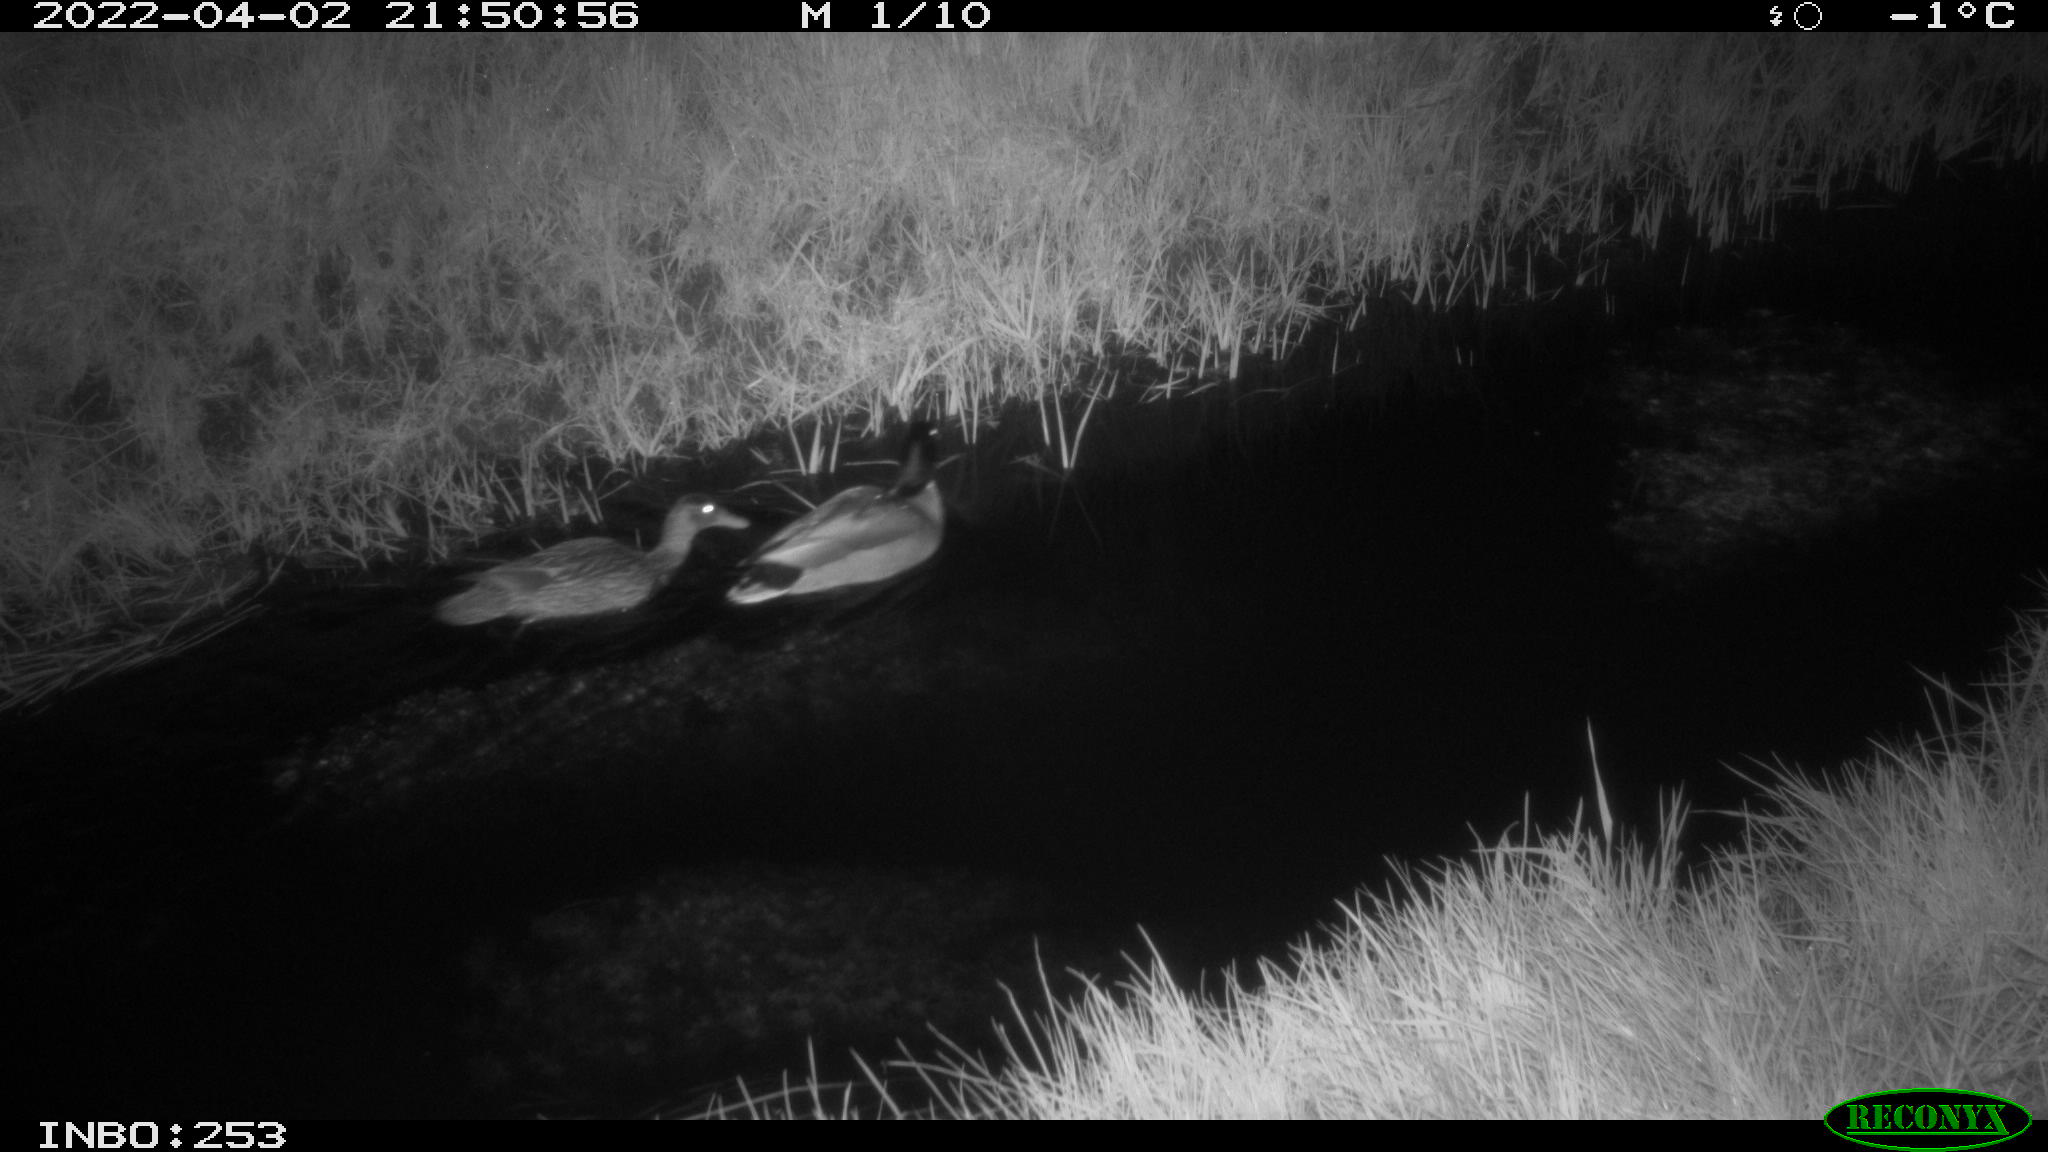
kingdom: Animalia
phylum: Chordata
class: Aves
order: Anseriformes
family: Anatidae
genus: Anas
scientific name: Anas platyrhynchos
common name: Mallard
